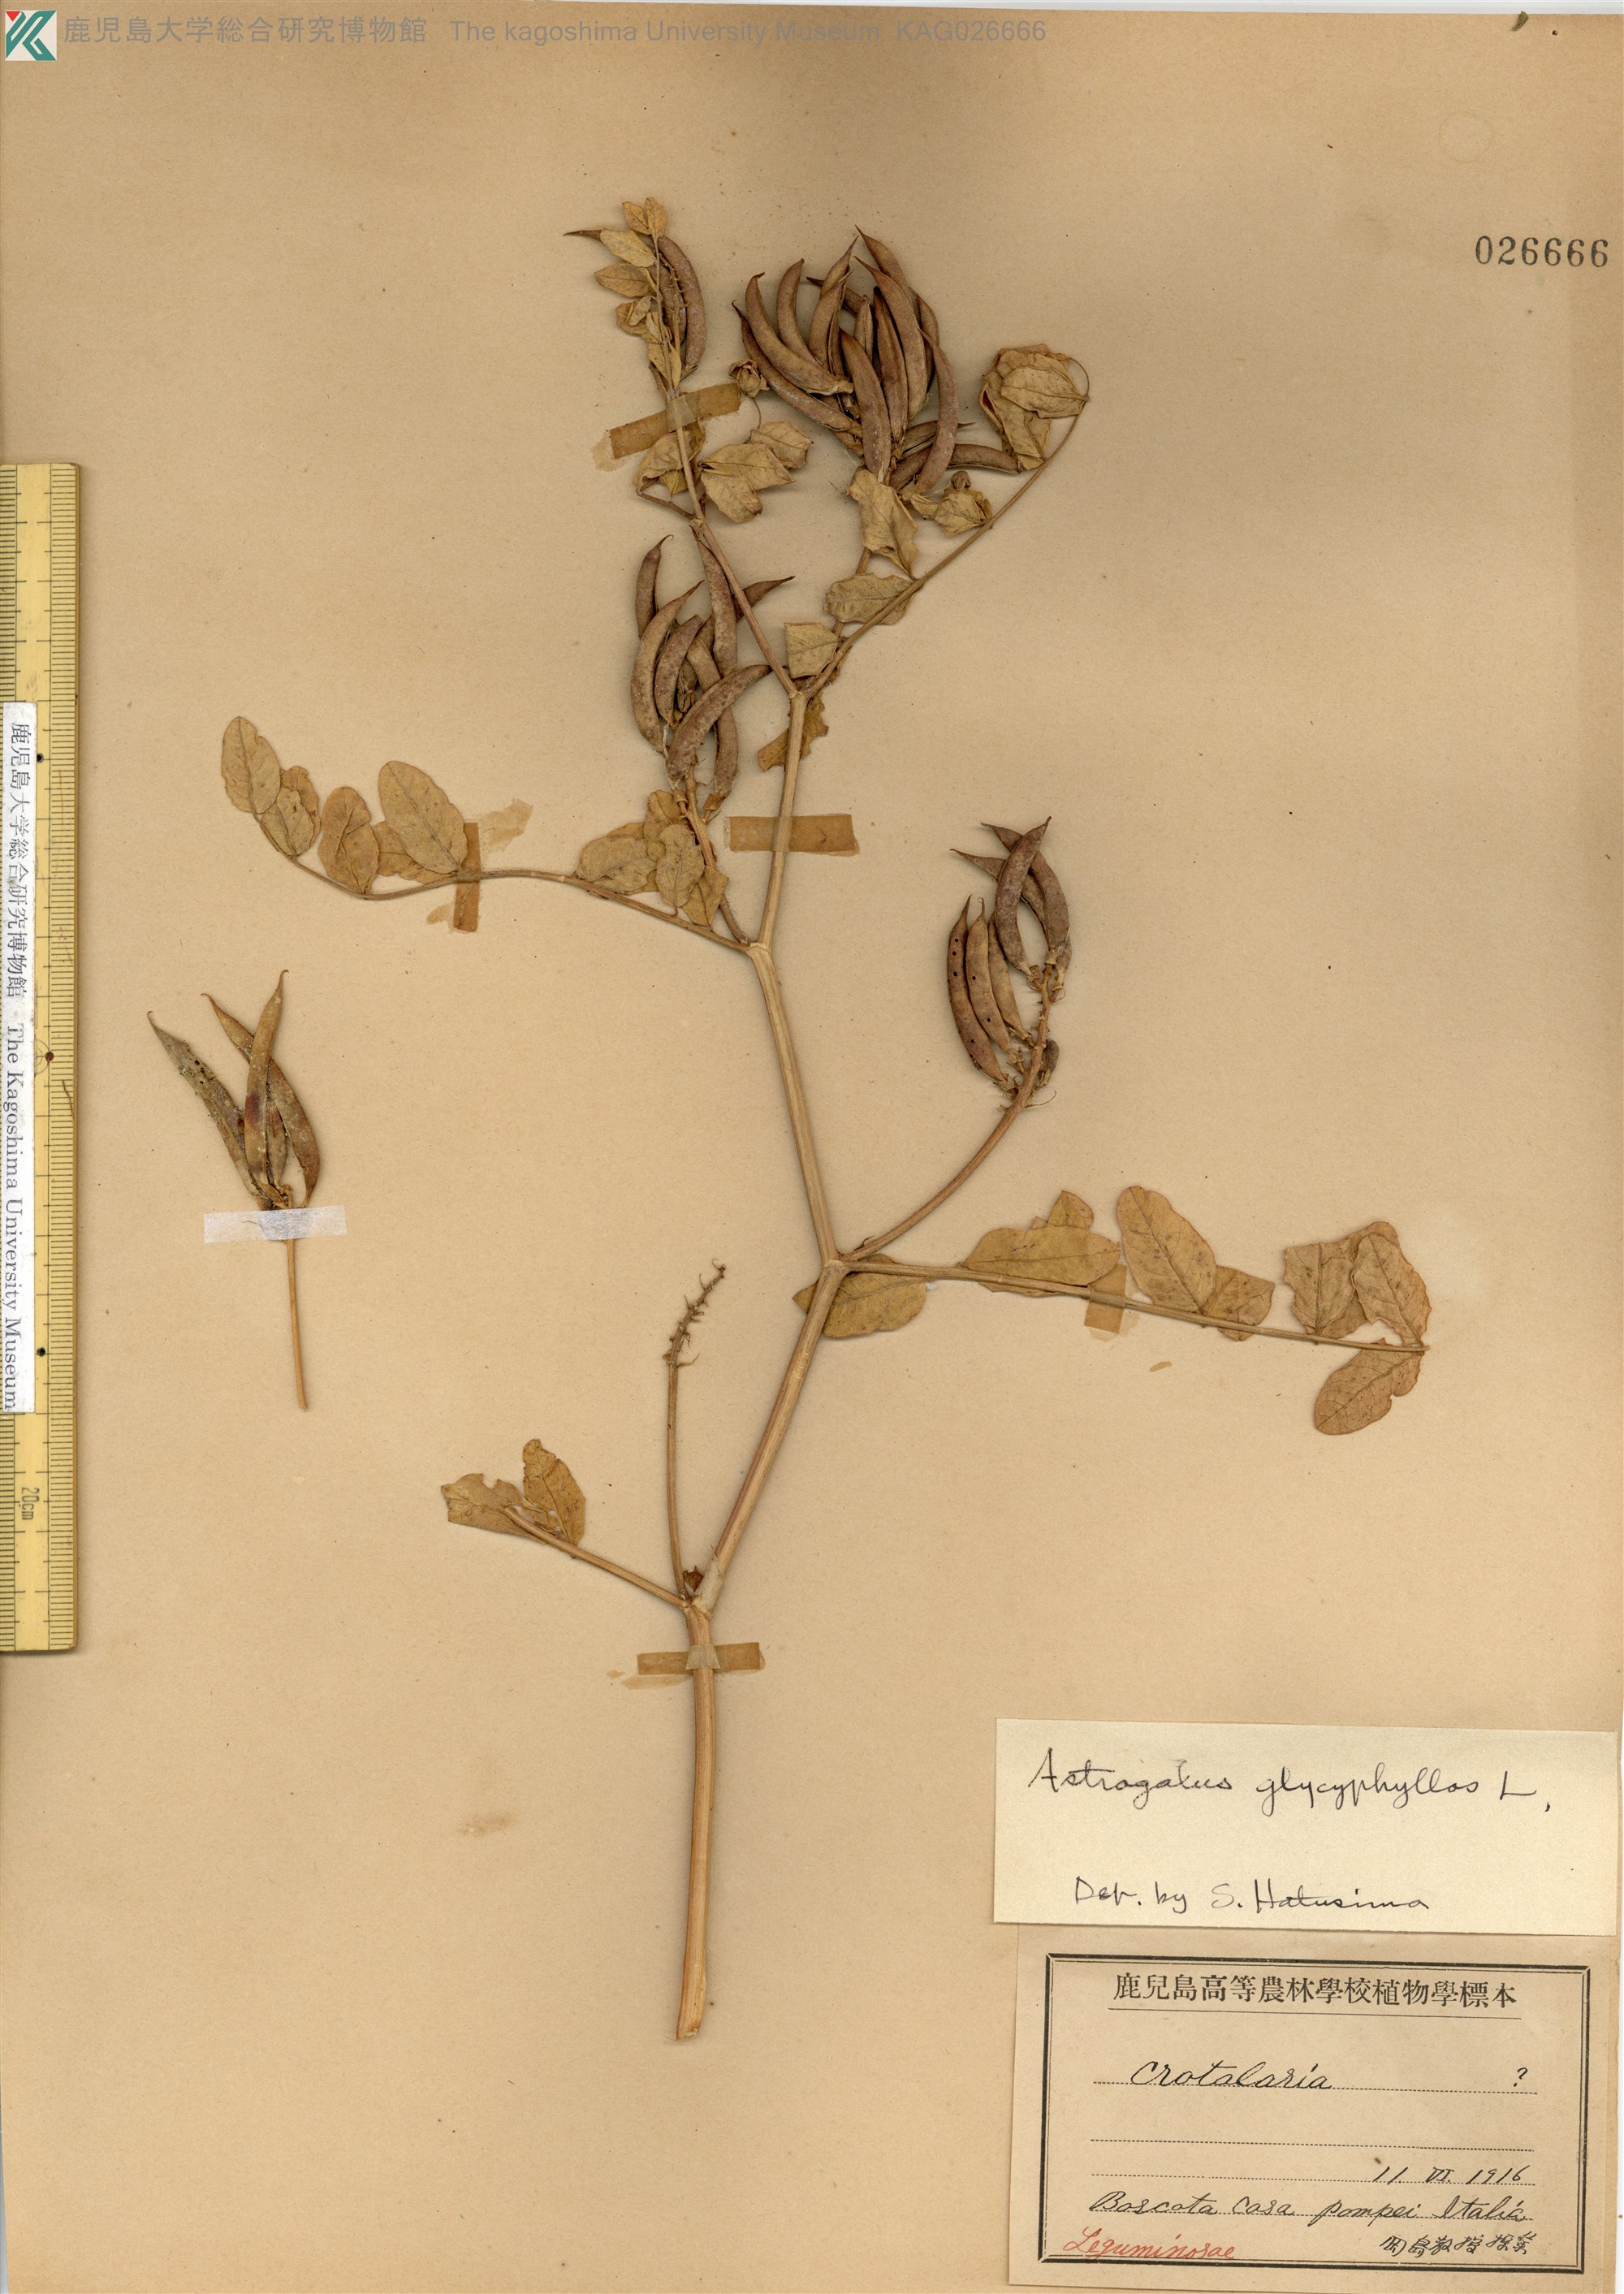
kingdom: Plantae
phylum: Tracheophyta
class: Magnoliopsida
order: Fabales
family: Fabaceae
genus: Astragalus
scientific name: Astragalus reflexistipulus
